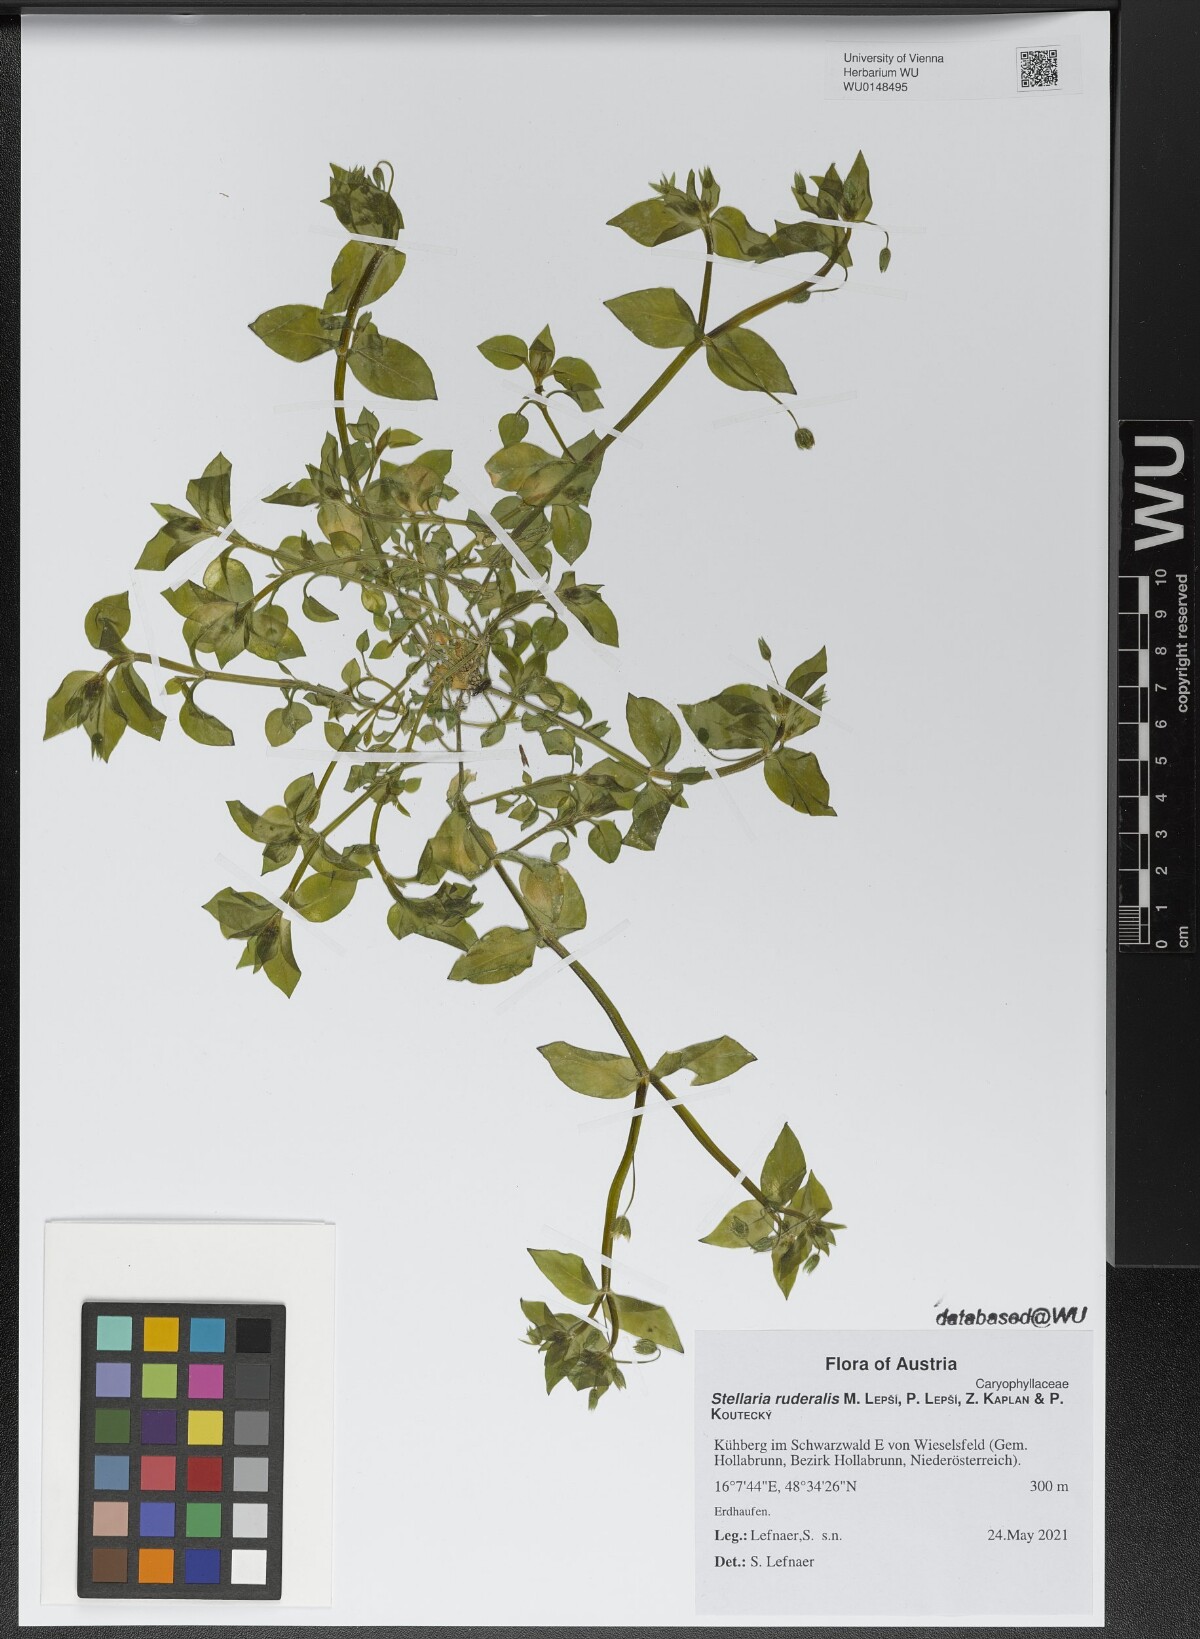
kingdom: Plantae
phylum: Tracheophyta
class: Magnoliopsida
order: Caryophyllales
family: Caryophyllaceae
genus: Stellaria
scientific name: Stellaria ruderalis
